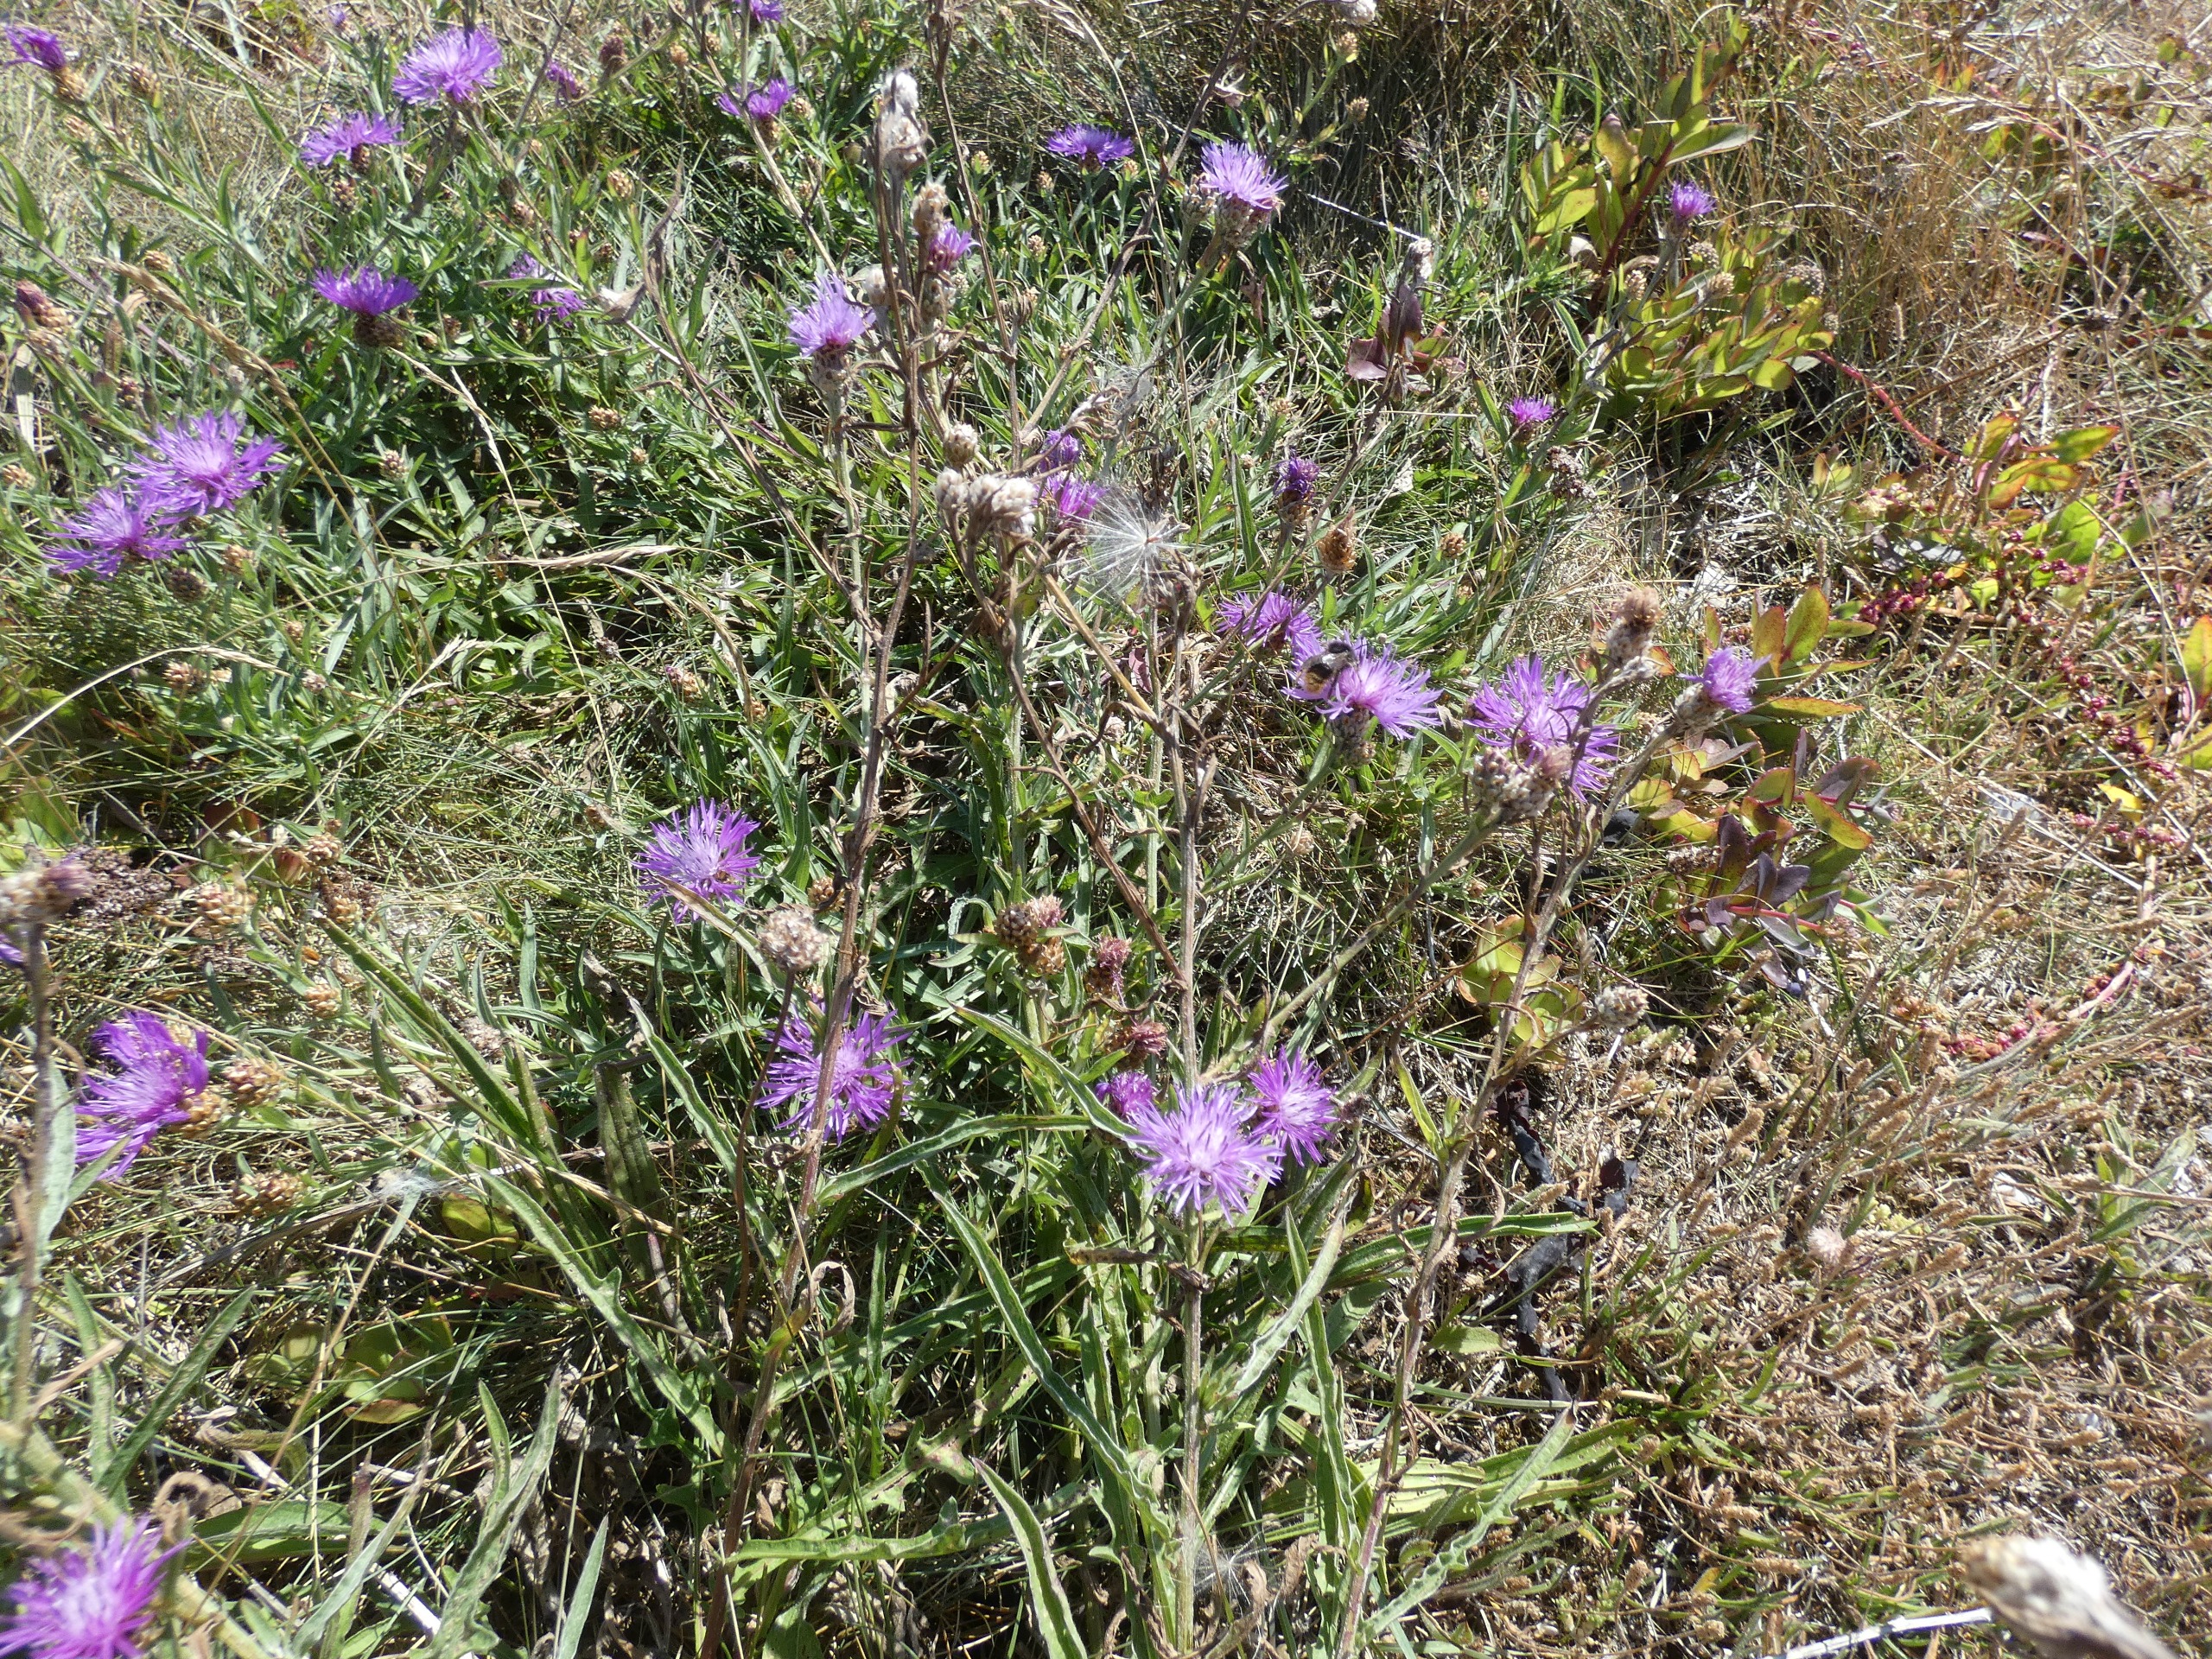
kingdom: Plantae
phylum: Tracheophyta
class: Magnoliopsida
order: Asterales
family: Asteraceae
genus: Centaurea
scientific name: Centaurea jacea
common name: Almindelig knopurt
